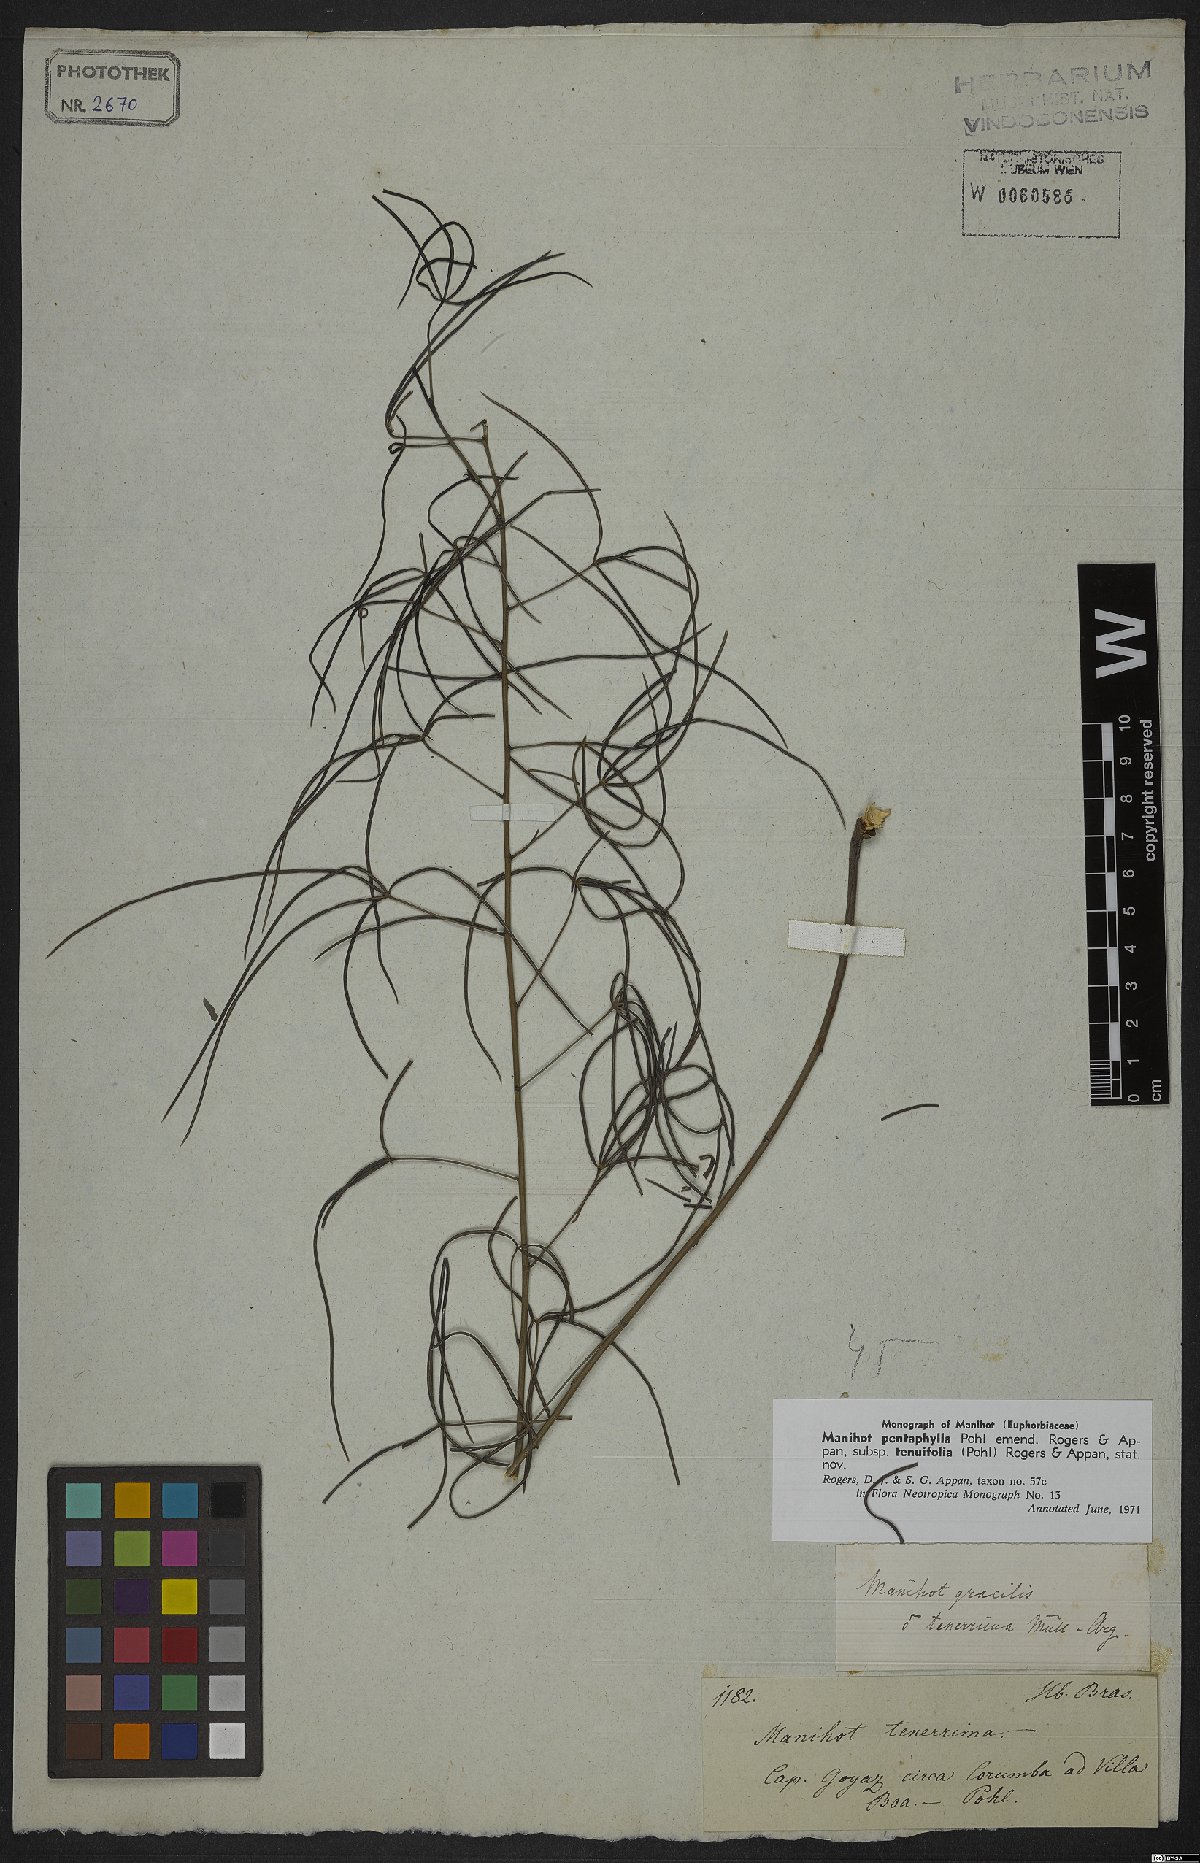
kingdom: Plantae
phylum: Tracheophyta
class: Magnoliopsida
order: Malpighiales
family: Euphorbiaceae
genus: Manihot
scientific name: Manihot pentaphylla
